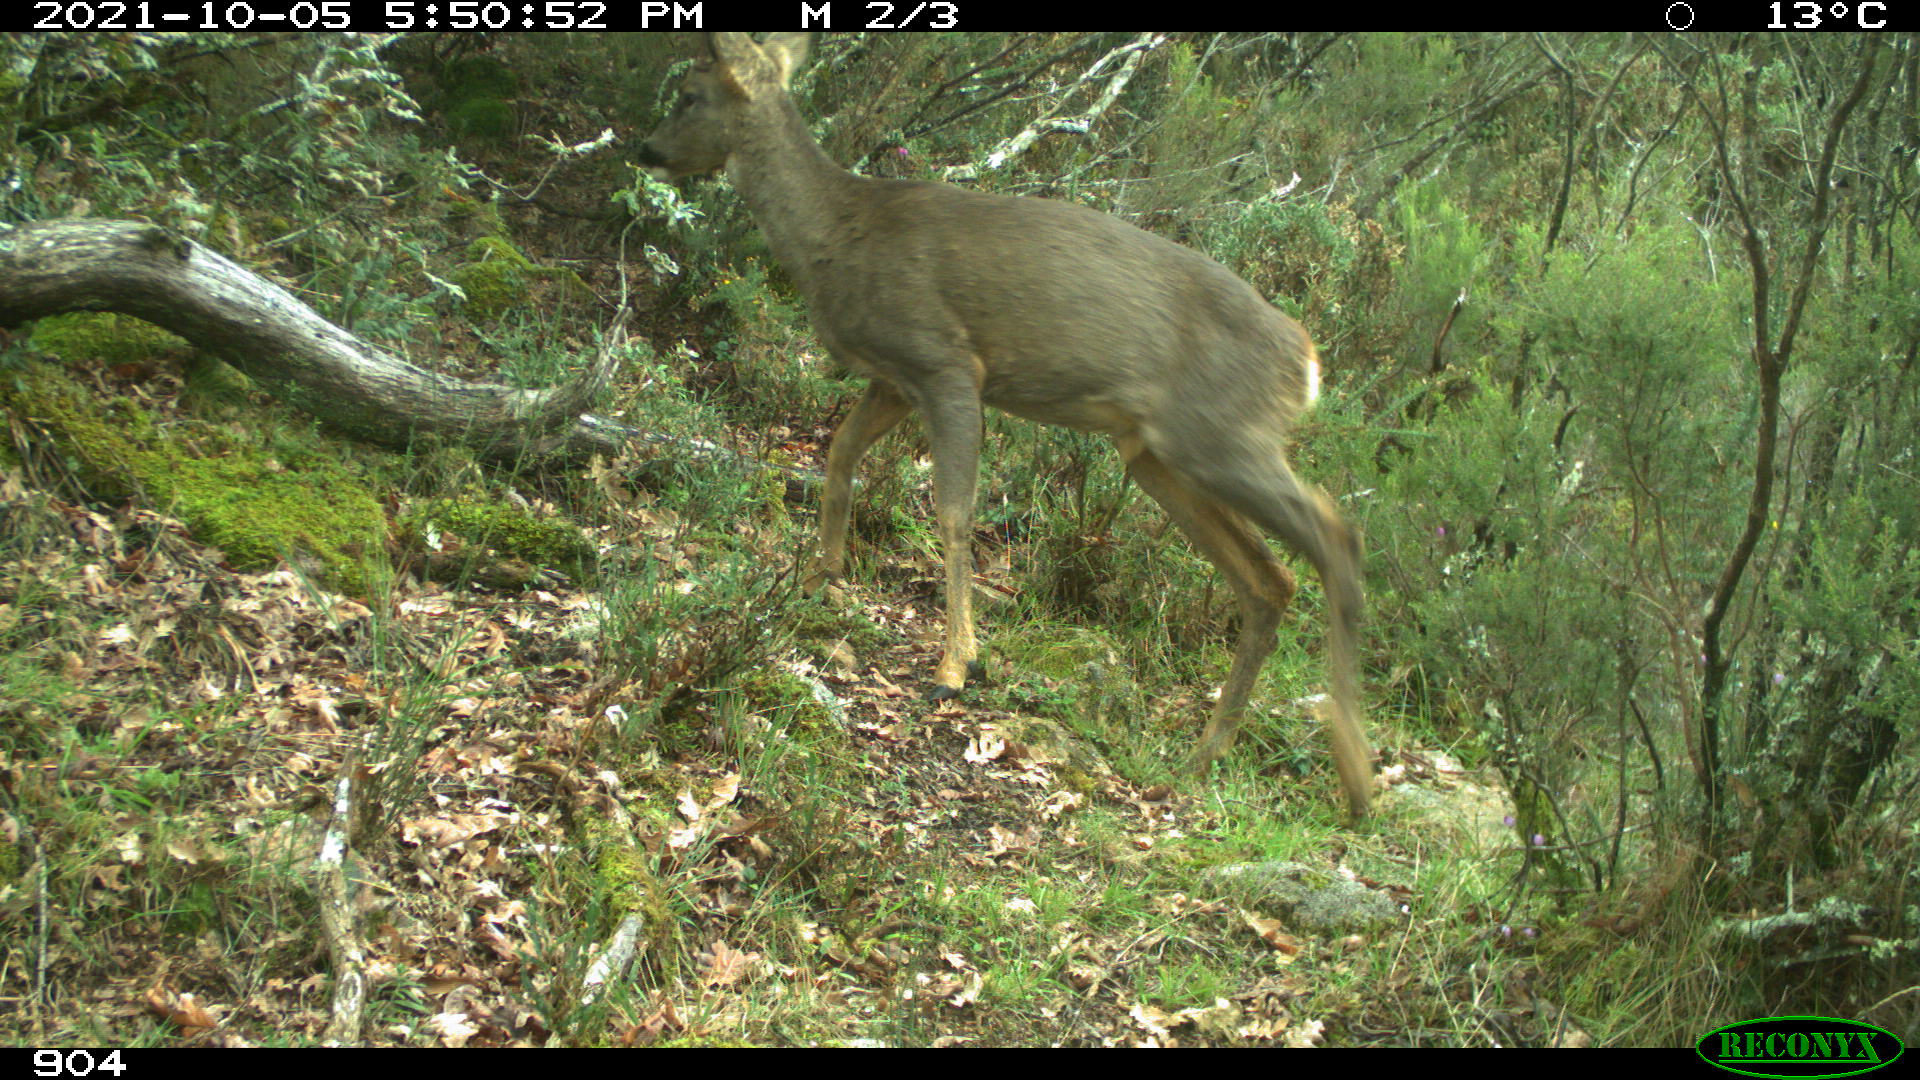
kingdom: Animalia
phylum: Chordata
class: Mammalia
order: Artiodactyla
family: Cervidae
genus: Capreolus
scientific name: Capreolus capreolus
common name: Western roe deer
